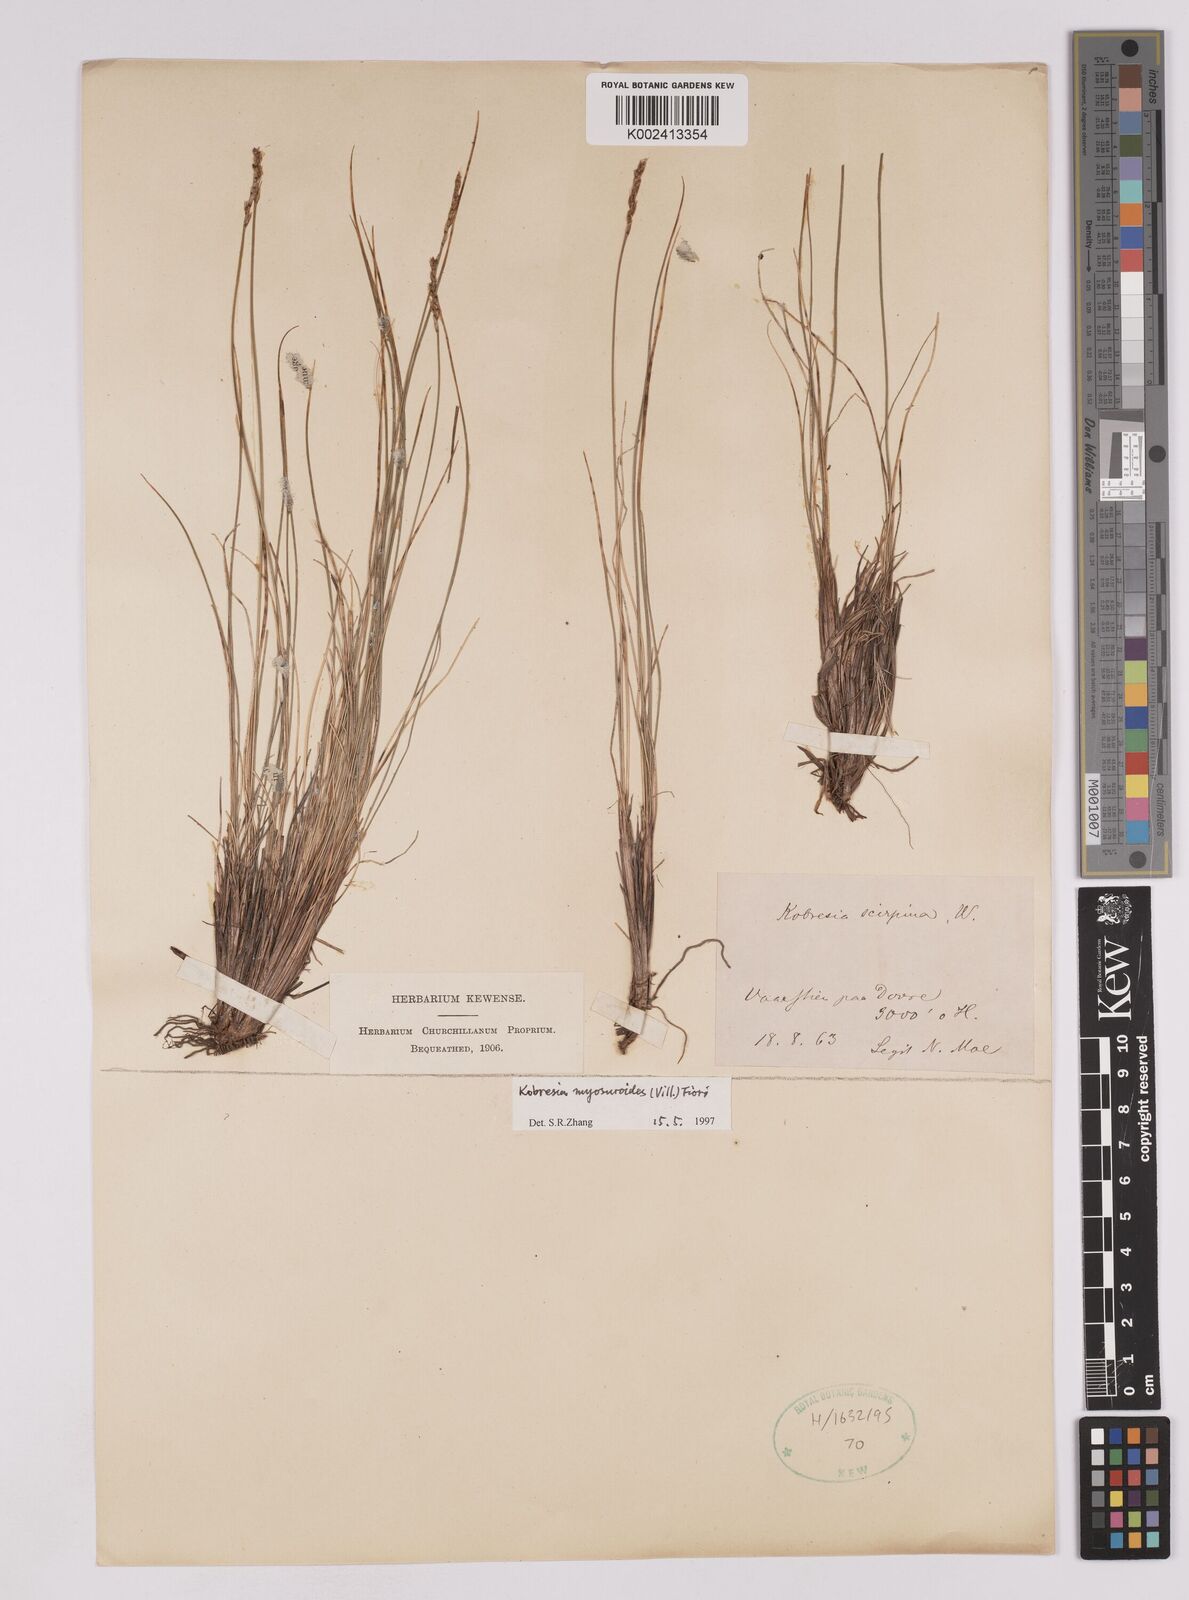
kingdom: Plantae
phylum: Tracheophyta
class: Liliopsida
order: Poales
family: Cyperaceae
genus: Carex
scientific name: Carex myosuroides
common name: Bellard's bog sedge
